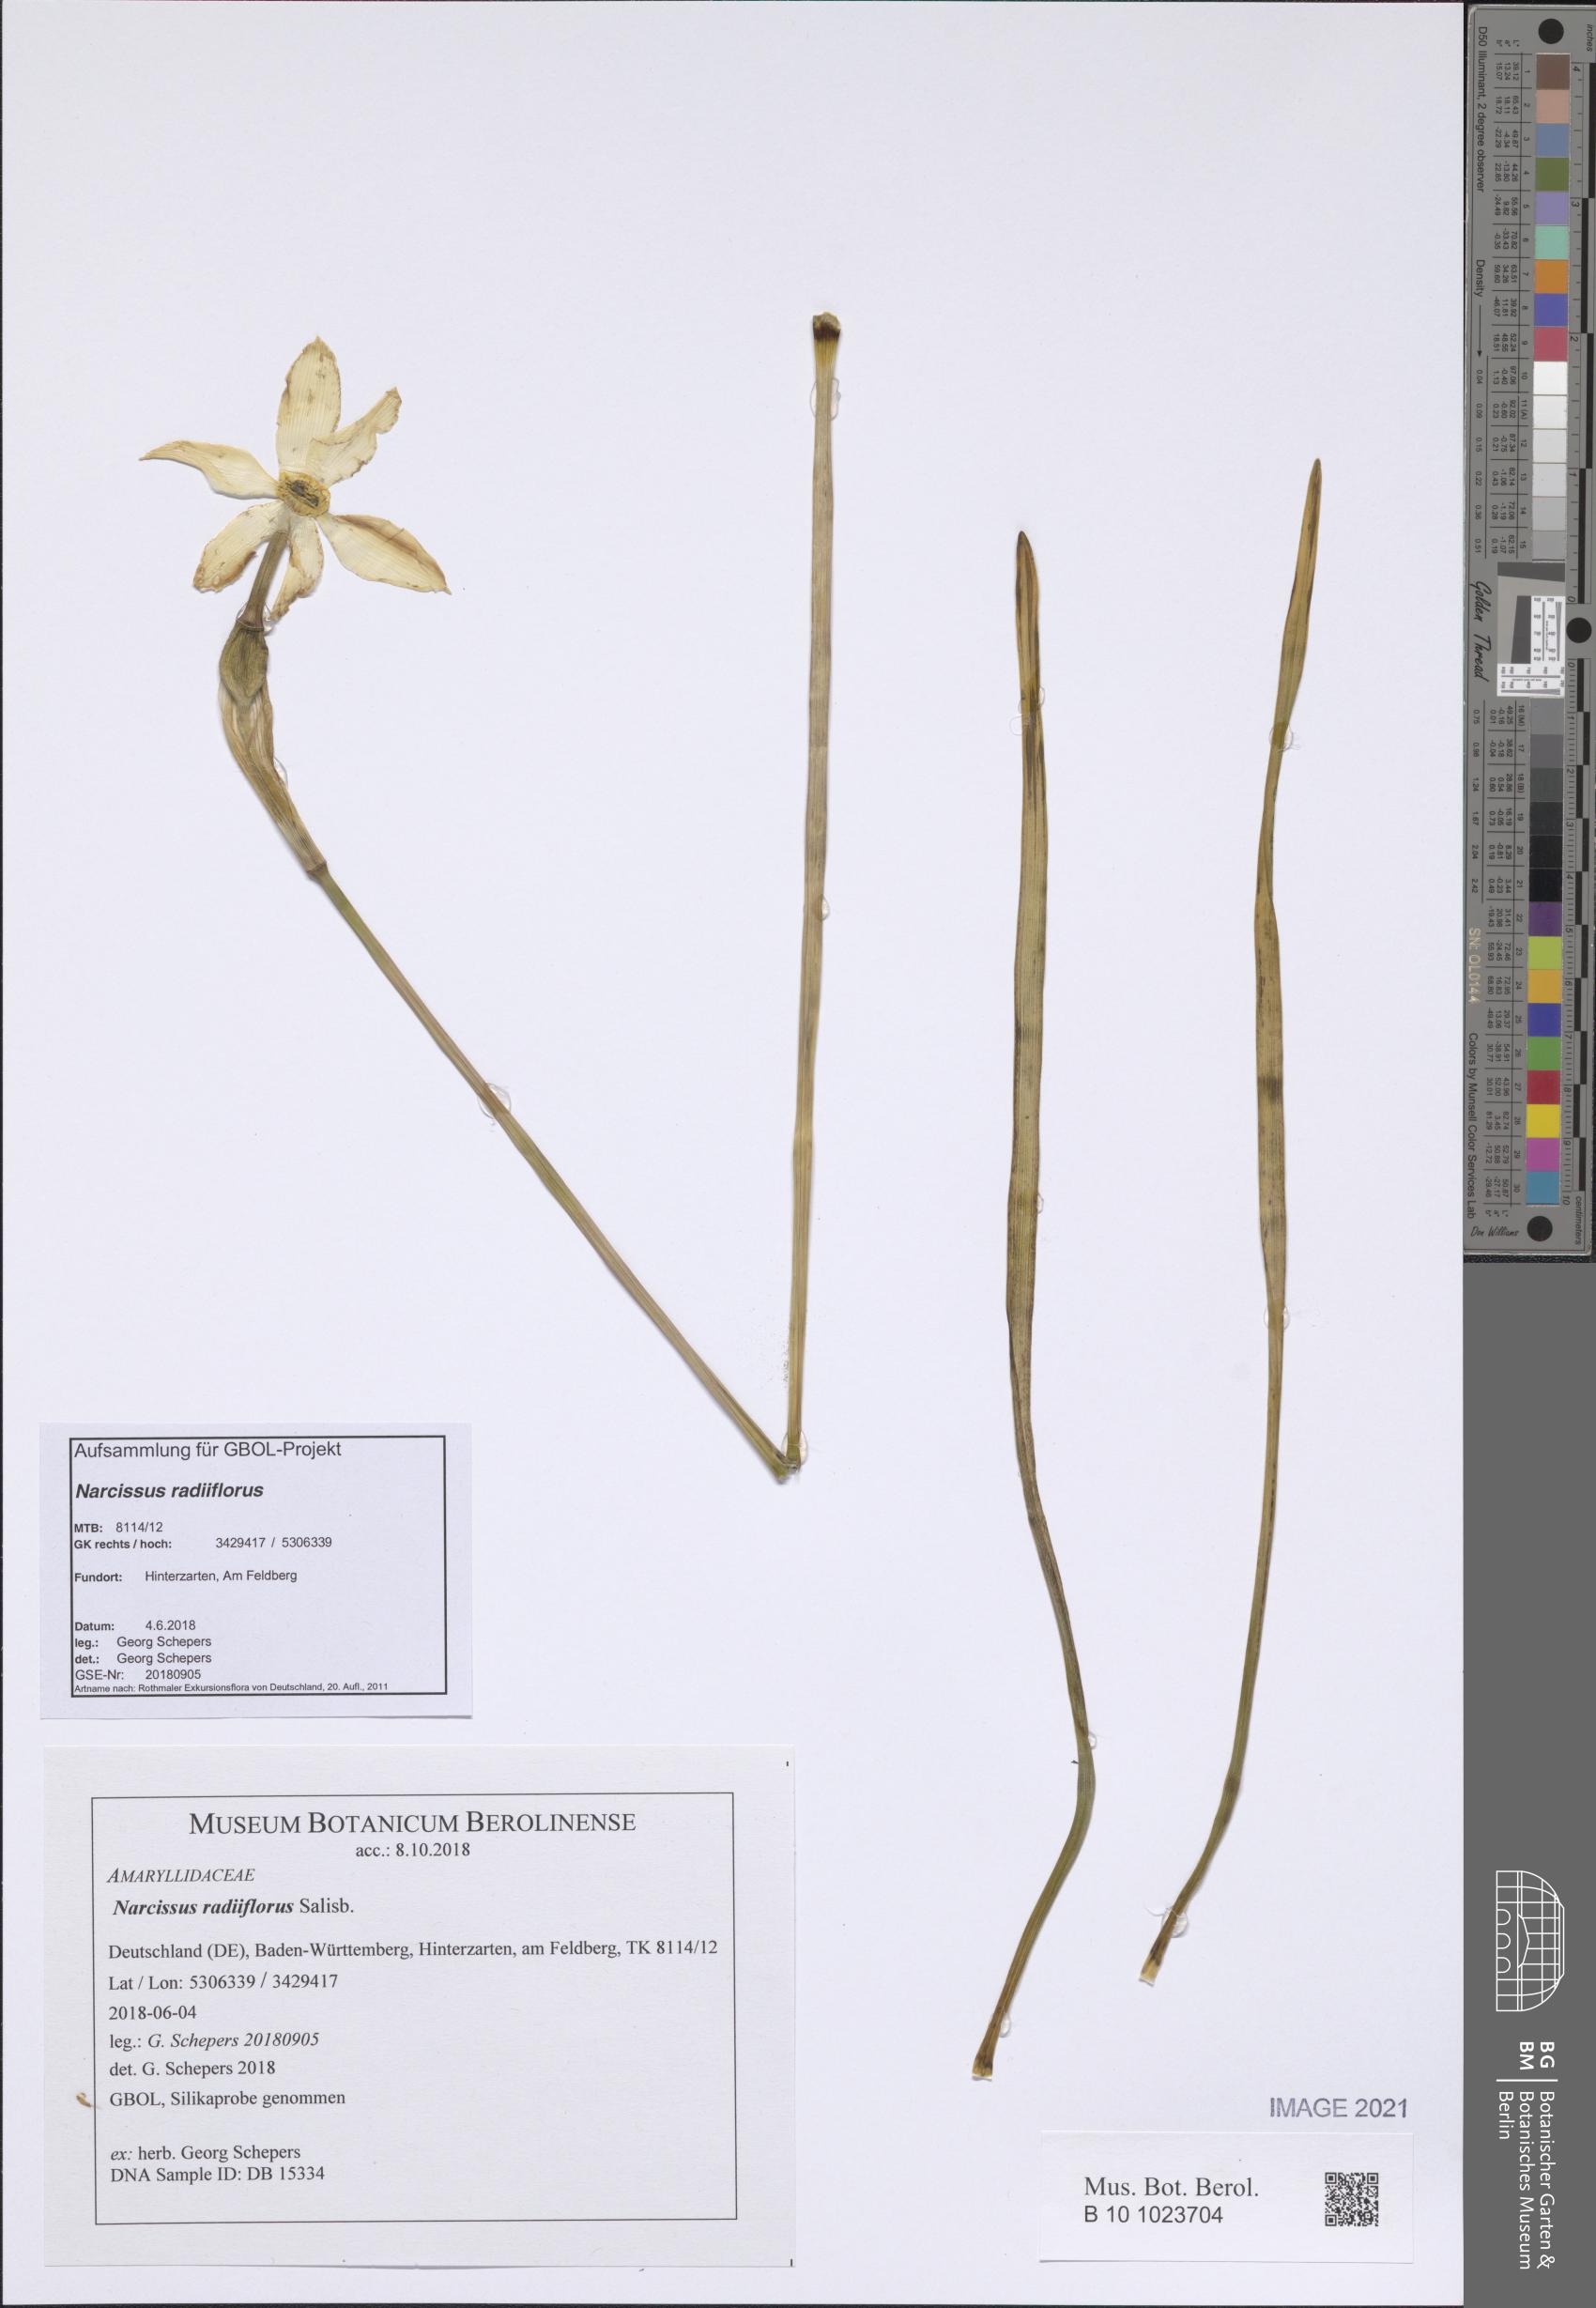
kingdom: Plantae
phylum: Tracheophyta
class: Liliopsida
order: Asparagales
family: Amaryllidaceae
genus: Narcissus
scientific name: Narcissus poeticus
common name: Pheasant's-eye daffodil
